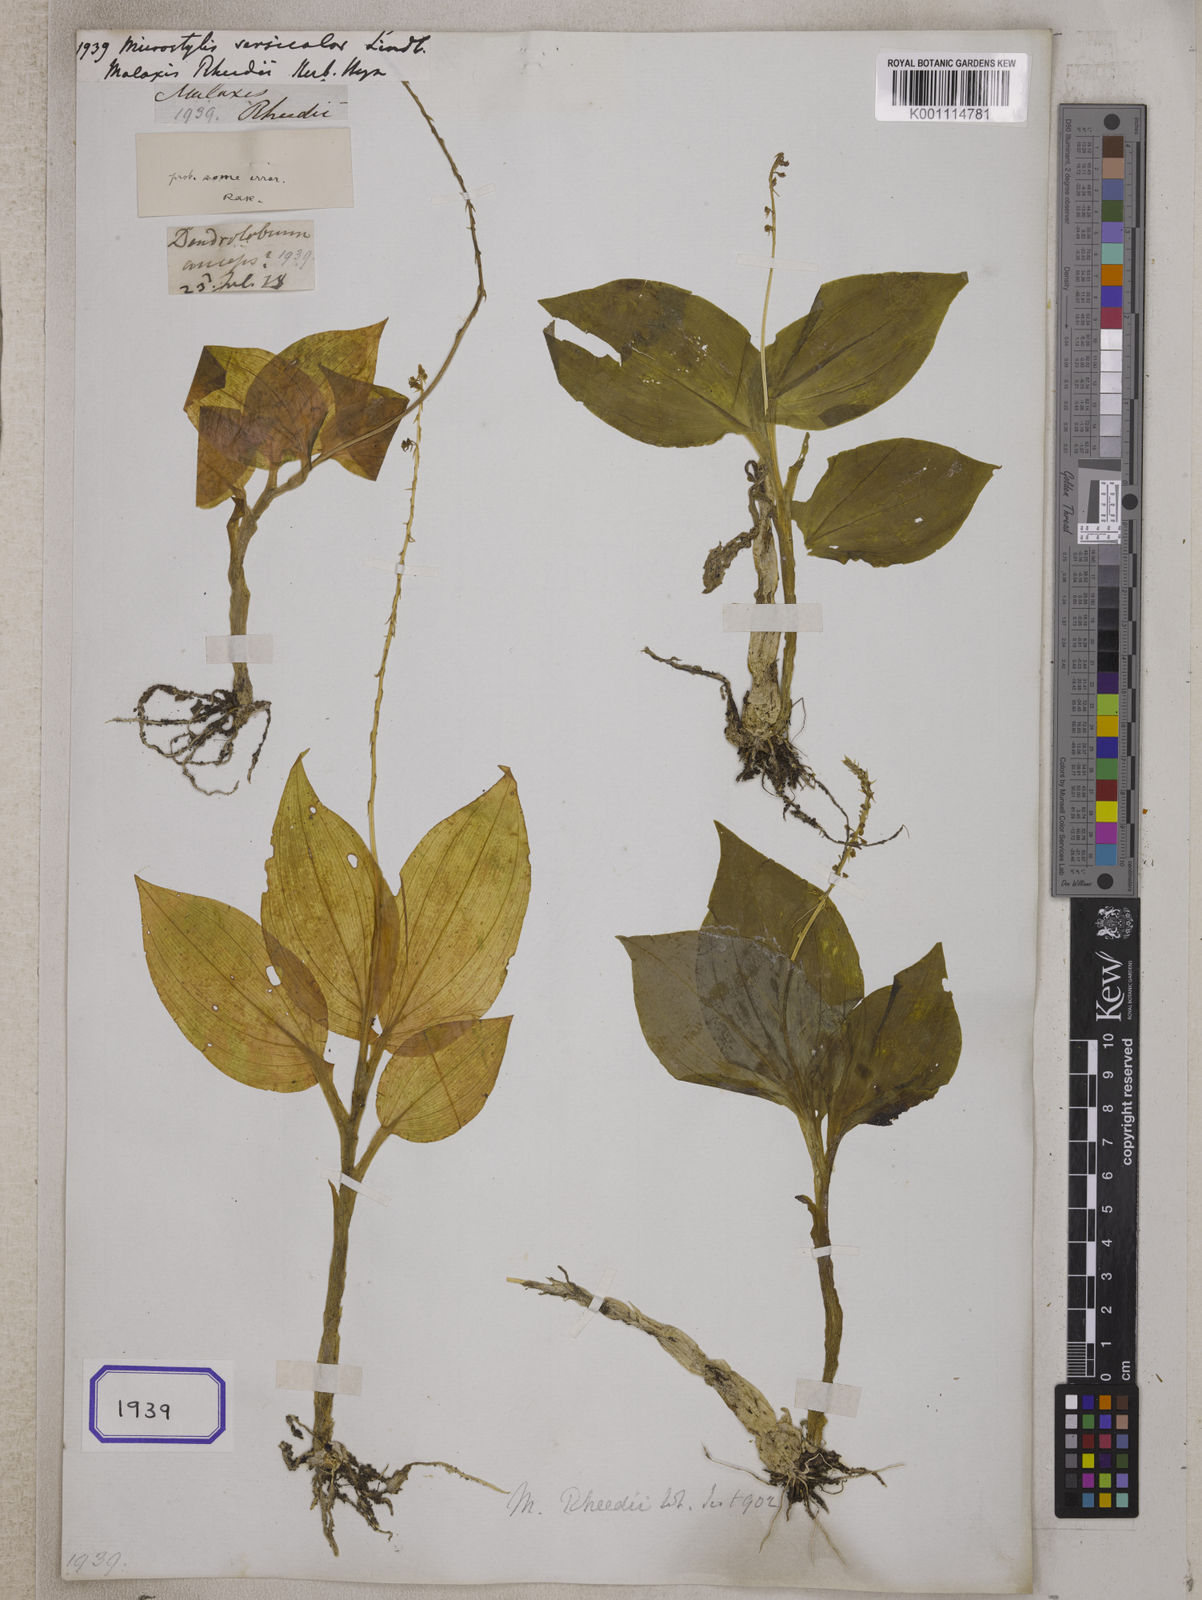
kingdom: Plantae
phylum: Tracheophyta
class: Liliopsida
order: Asparagales
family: Orchidaceae
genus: Crepidium
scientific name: Crepidium versicolor
